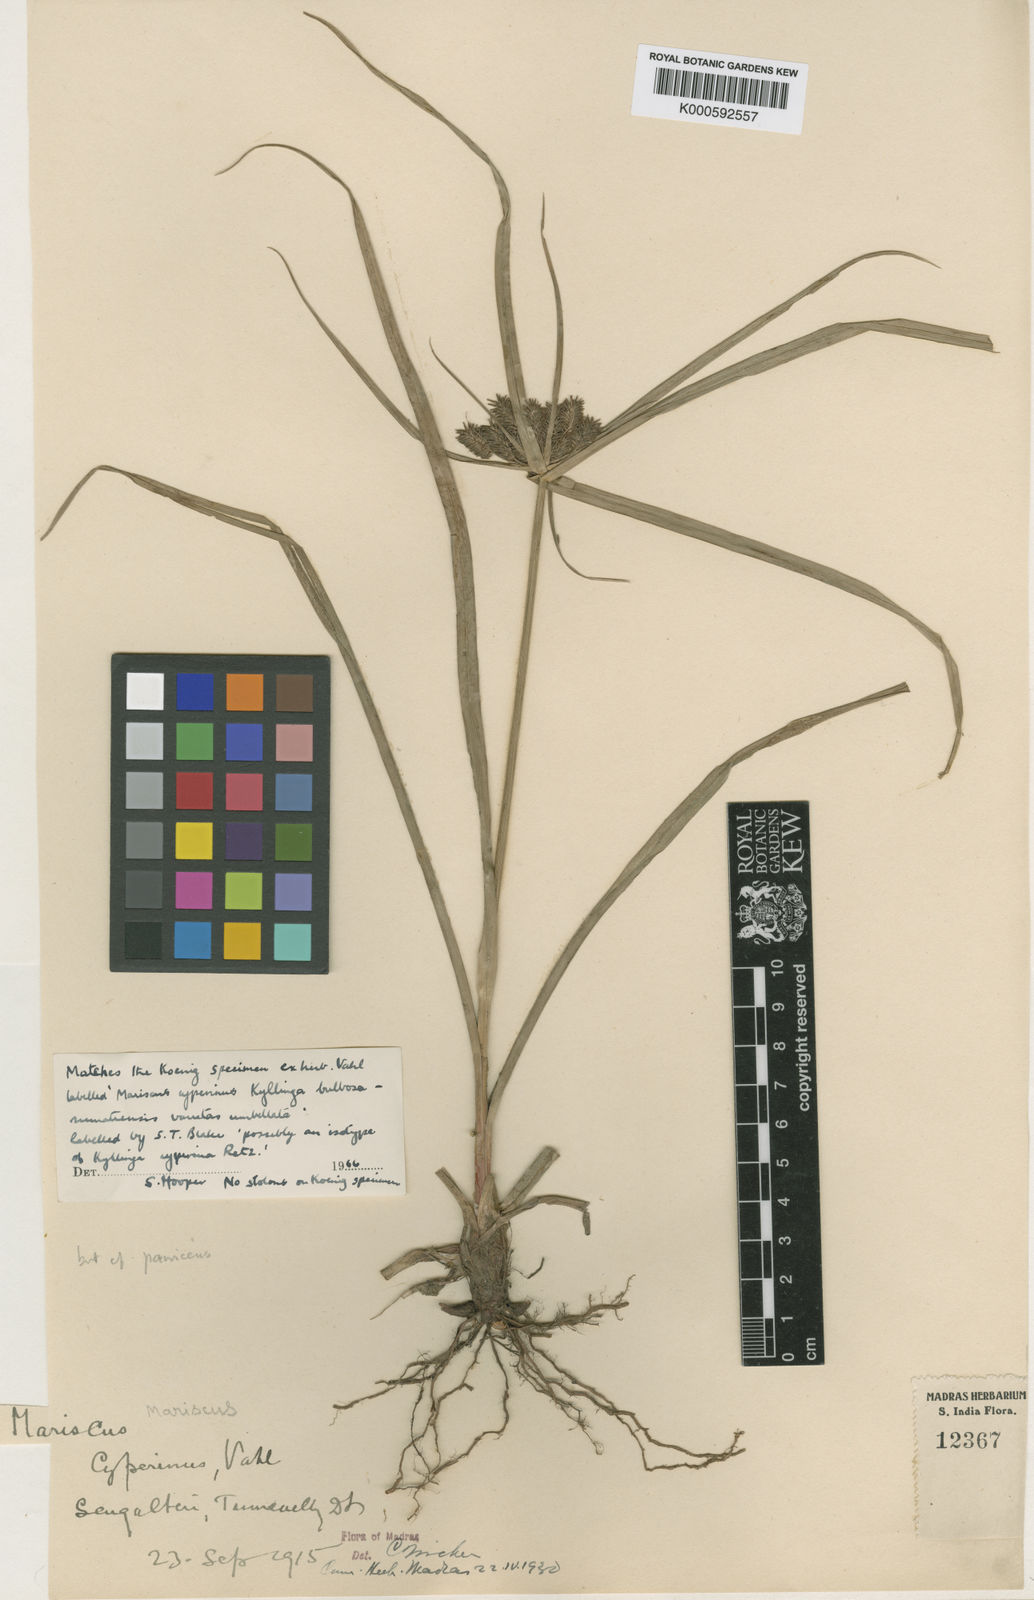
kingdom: Plantae
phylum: Tracheophyta
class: Liliopsida
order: Poales
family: Cyperaceae
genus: Cyperus
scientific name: Cyperus paniceus
